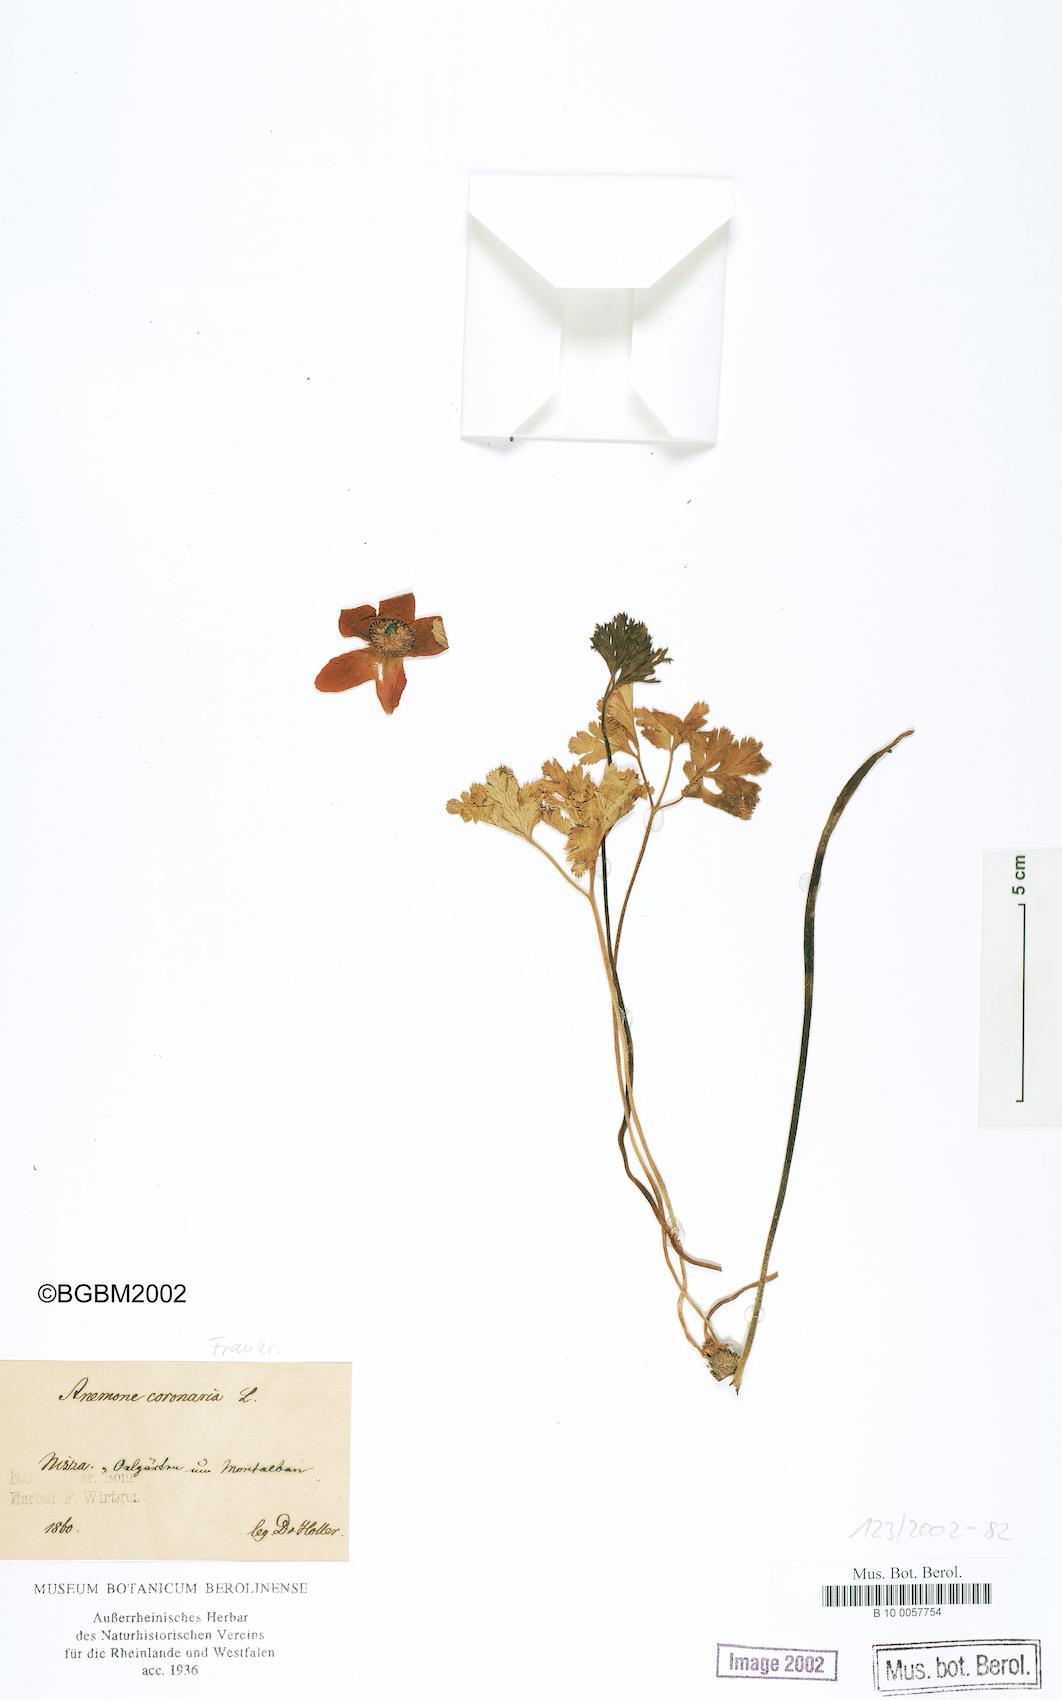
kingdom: Plantae
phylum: Tracheophyta
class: Magnoliopsida
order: Ranunculales
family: Ranunculaceae
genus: Anemone
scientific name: Anemone coronaria
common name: Poppy anemone
